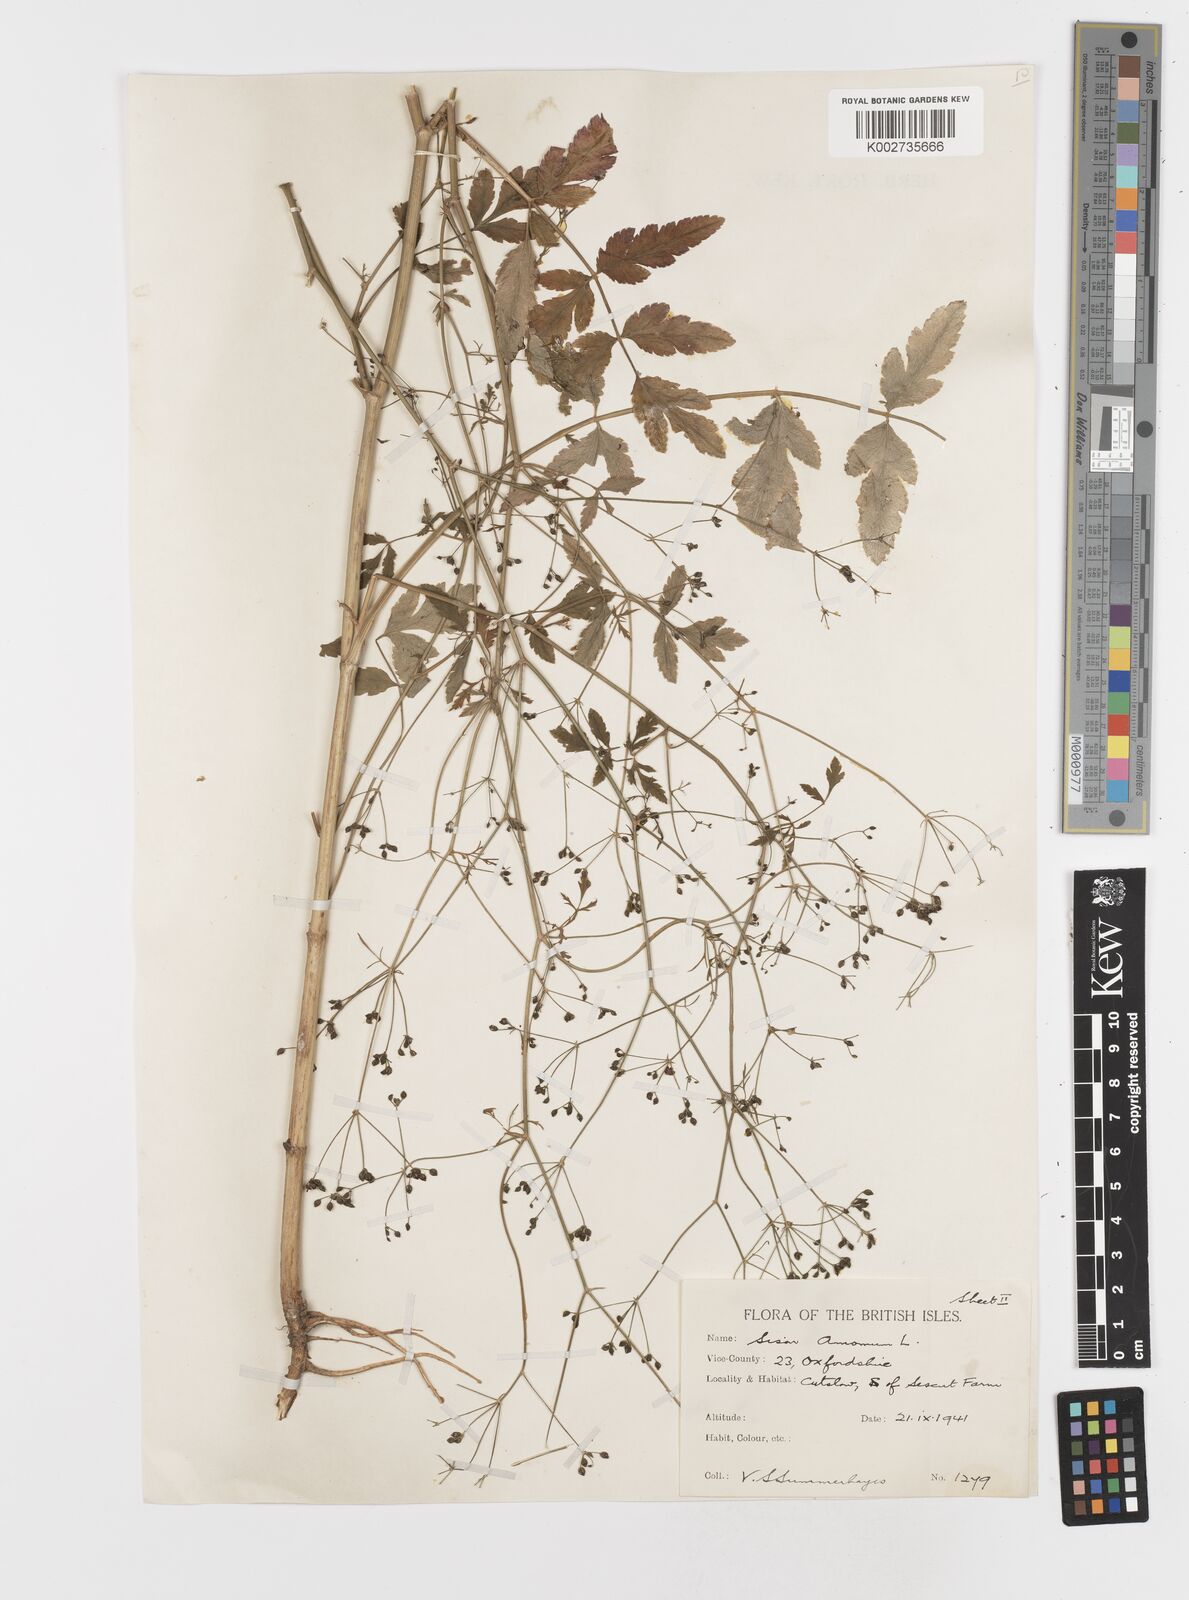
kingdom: Plantae
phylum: Tracheophyta
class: Magnoliopsida
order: Apiales
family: Apiaceae
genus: Sison
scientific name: Sison amomum
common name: Stone-parsley
